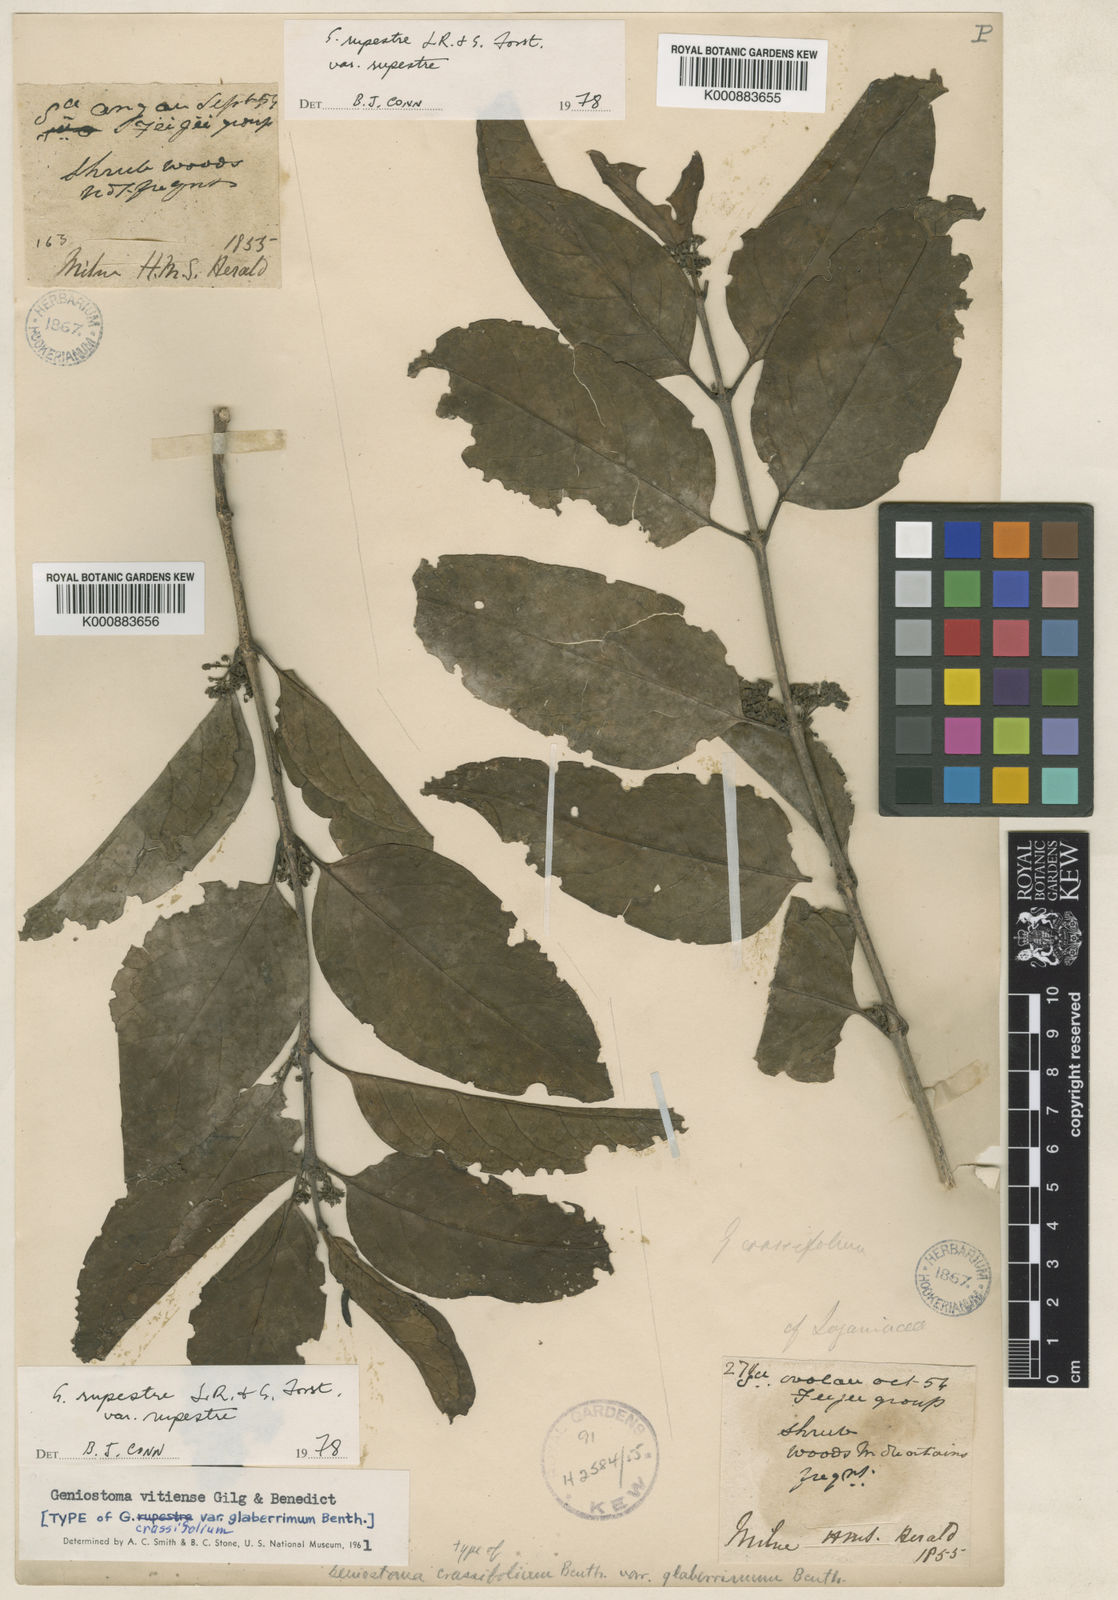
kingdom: Plantae
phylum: Tracheophyta
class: Magnoliopsida
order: Gentianales
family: Loganiaceae
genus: Geniostoma
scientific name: Geniostoma rupestre
